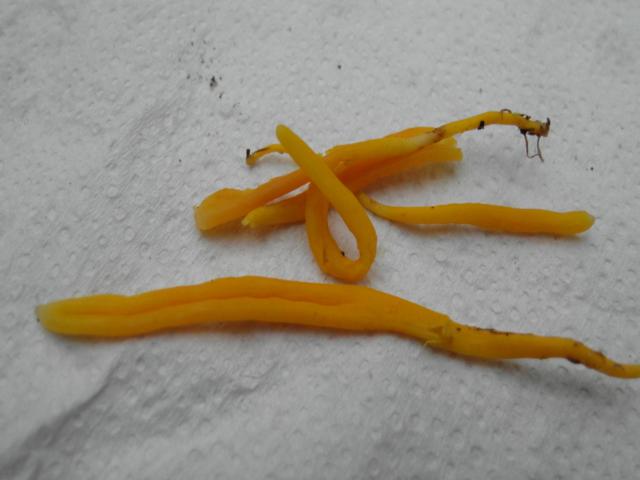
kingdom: Fungi
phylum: Basidiomycota
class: Agaricomycetes
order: Agaricales
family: Clavariaceae
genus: Clavulinopsis
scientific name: Clavulinopsis helvola
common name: orangegul køllesvamp
